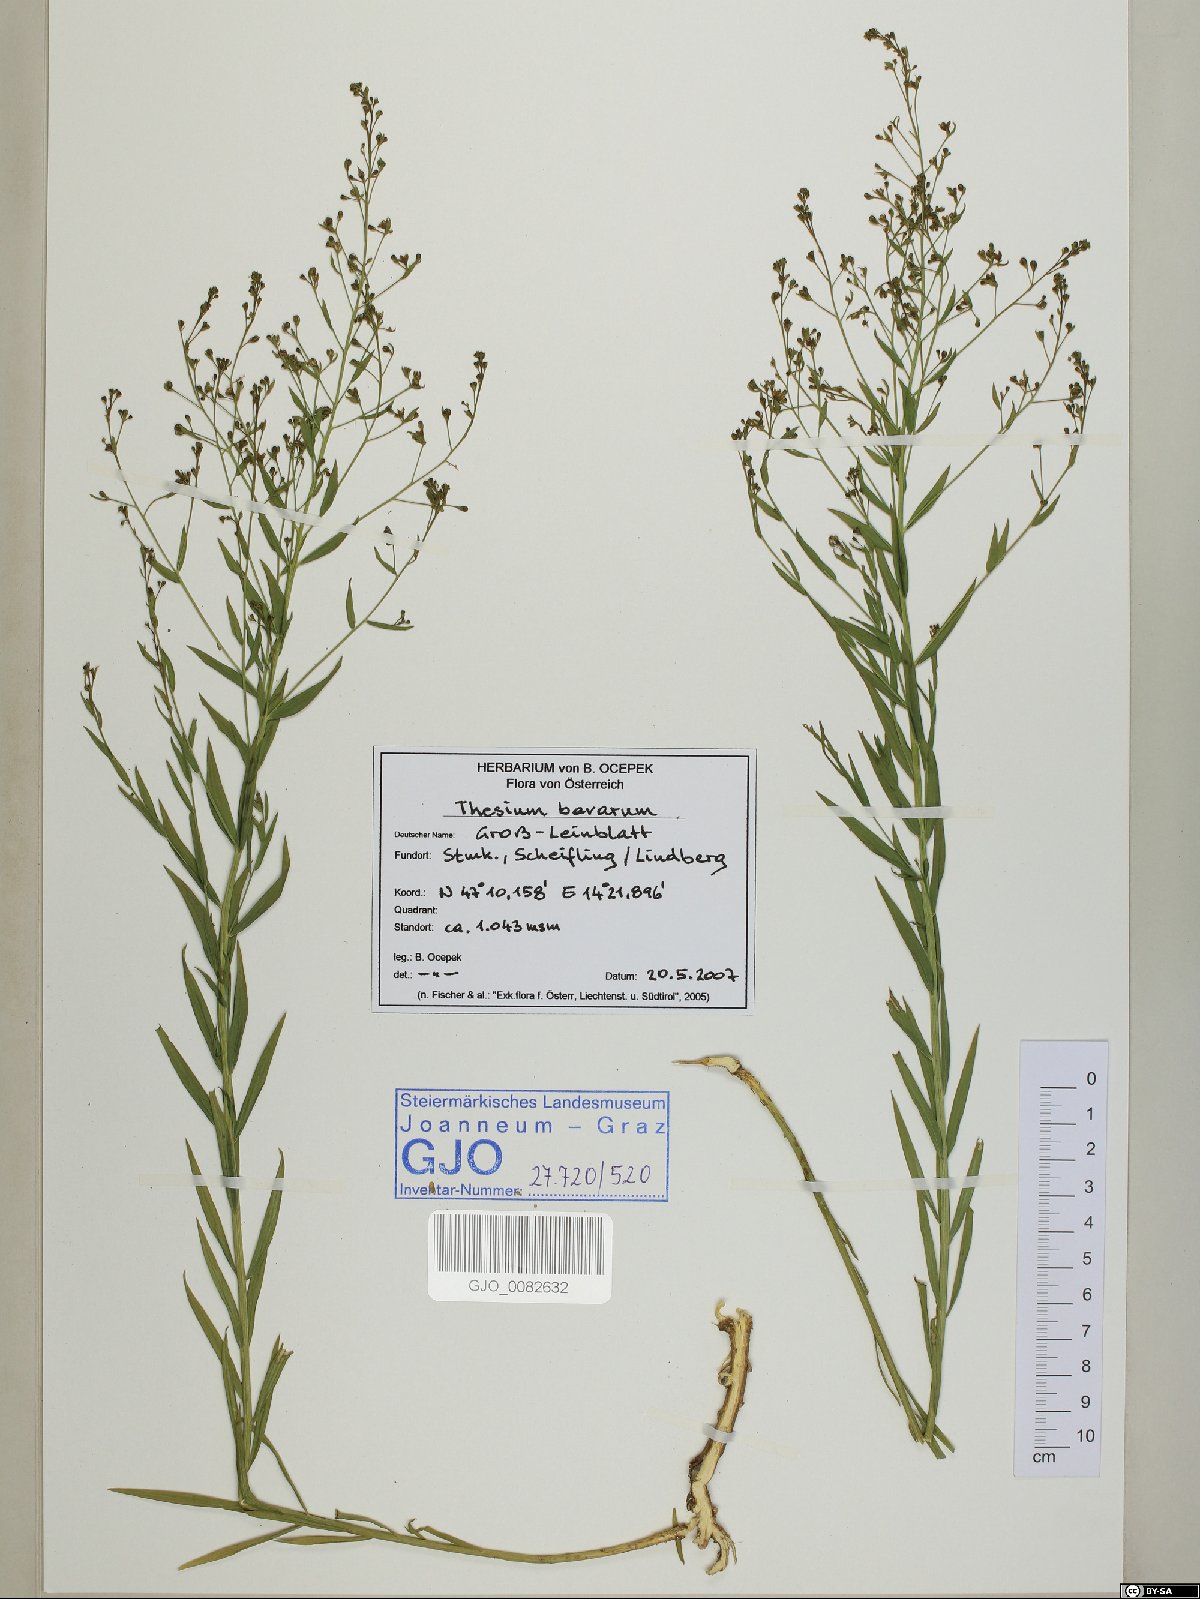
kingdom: Plantae
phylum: Tracheophyta
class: Magnoliopsida
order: Santalales
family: Thesiaceae
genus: Thesium
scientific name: Thesium bavarum
